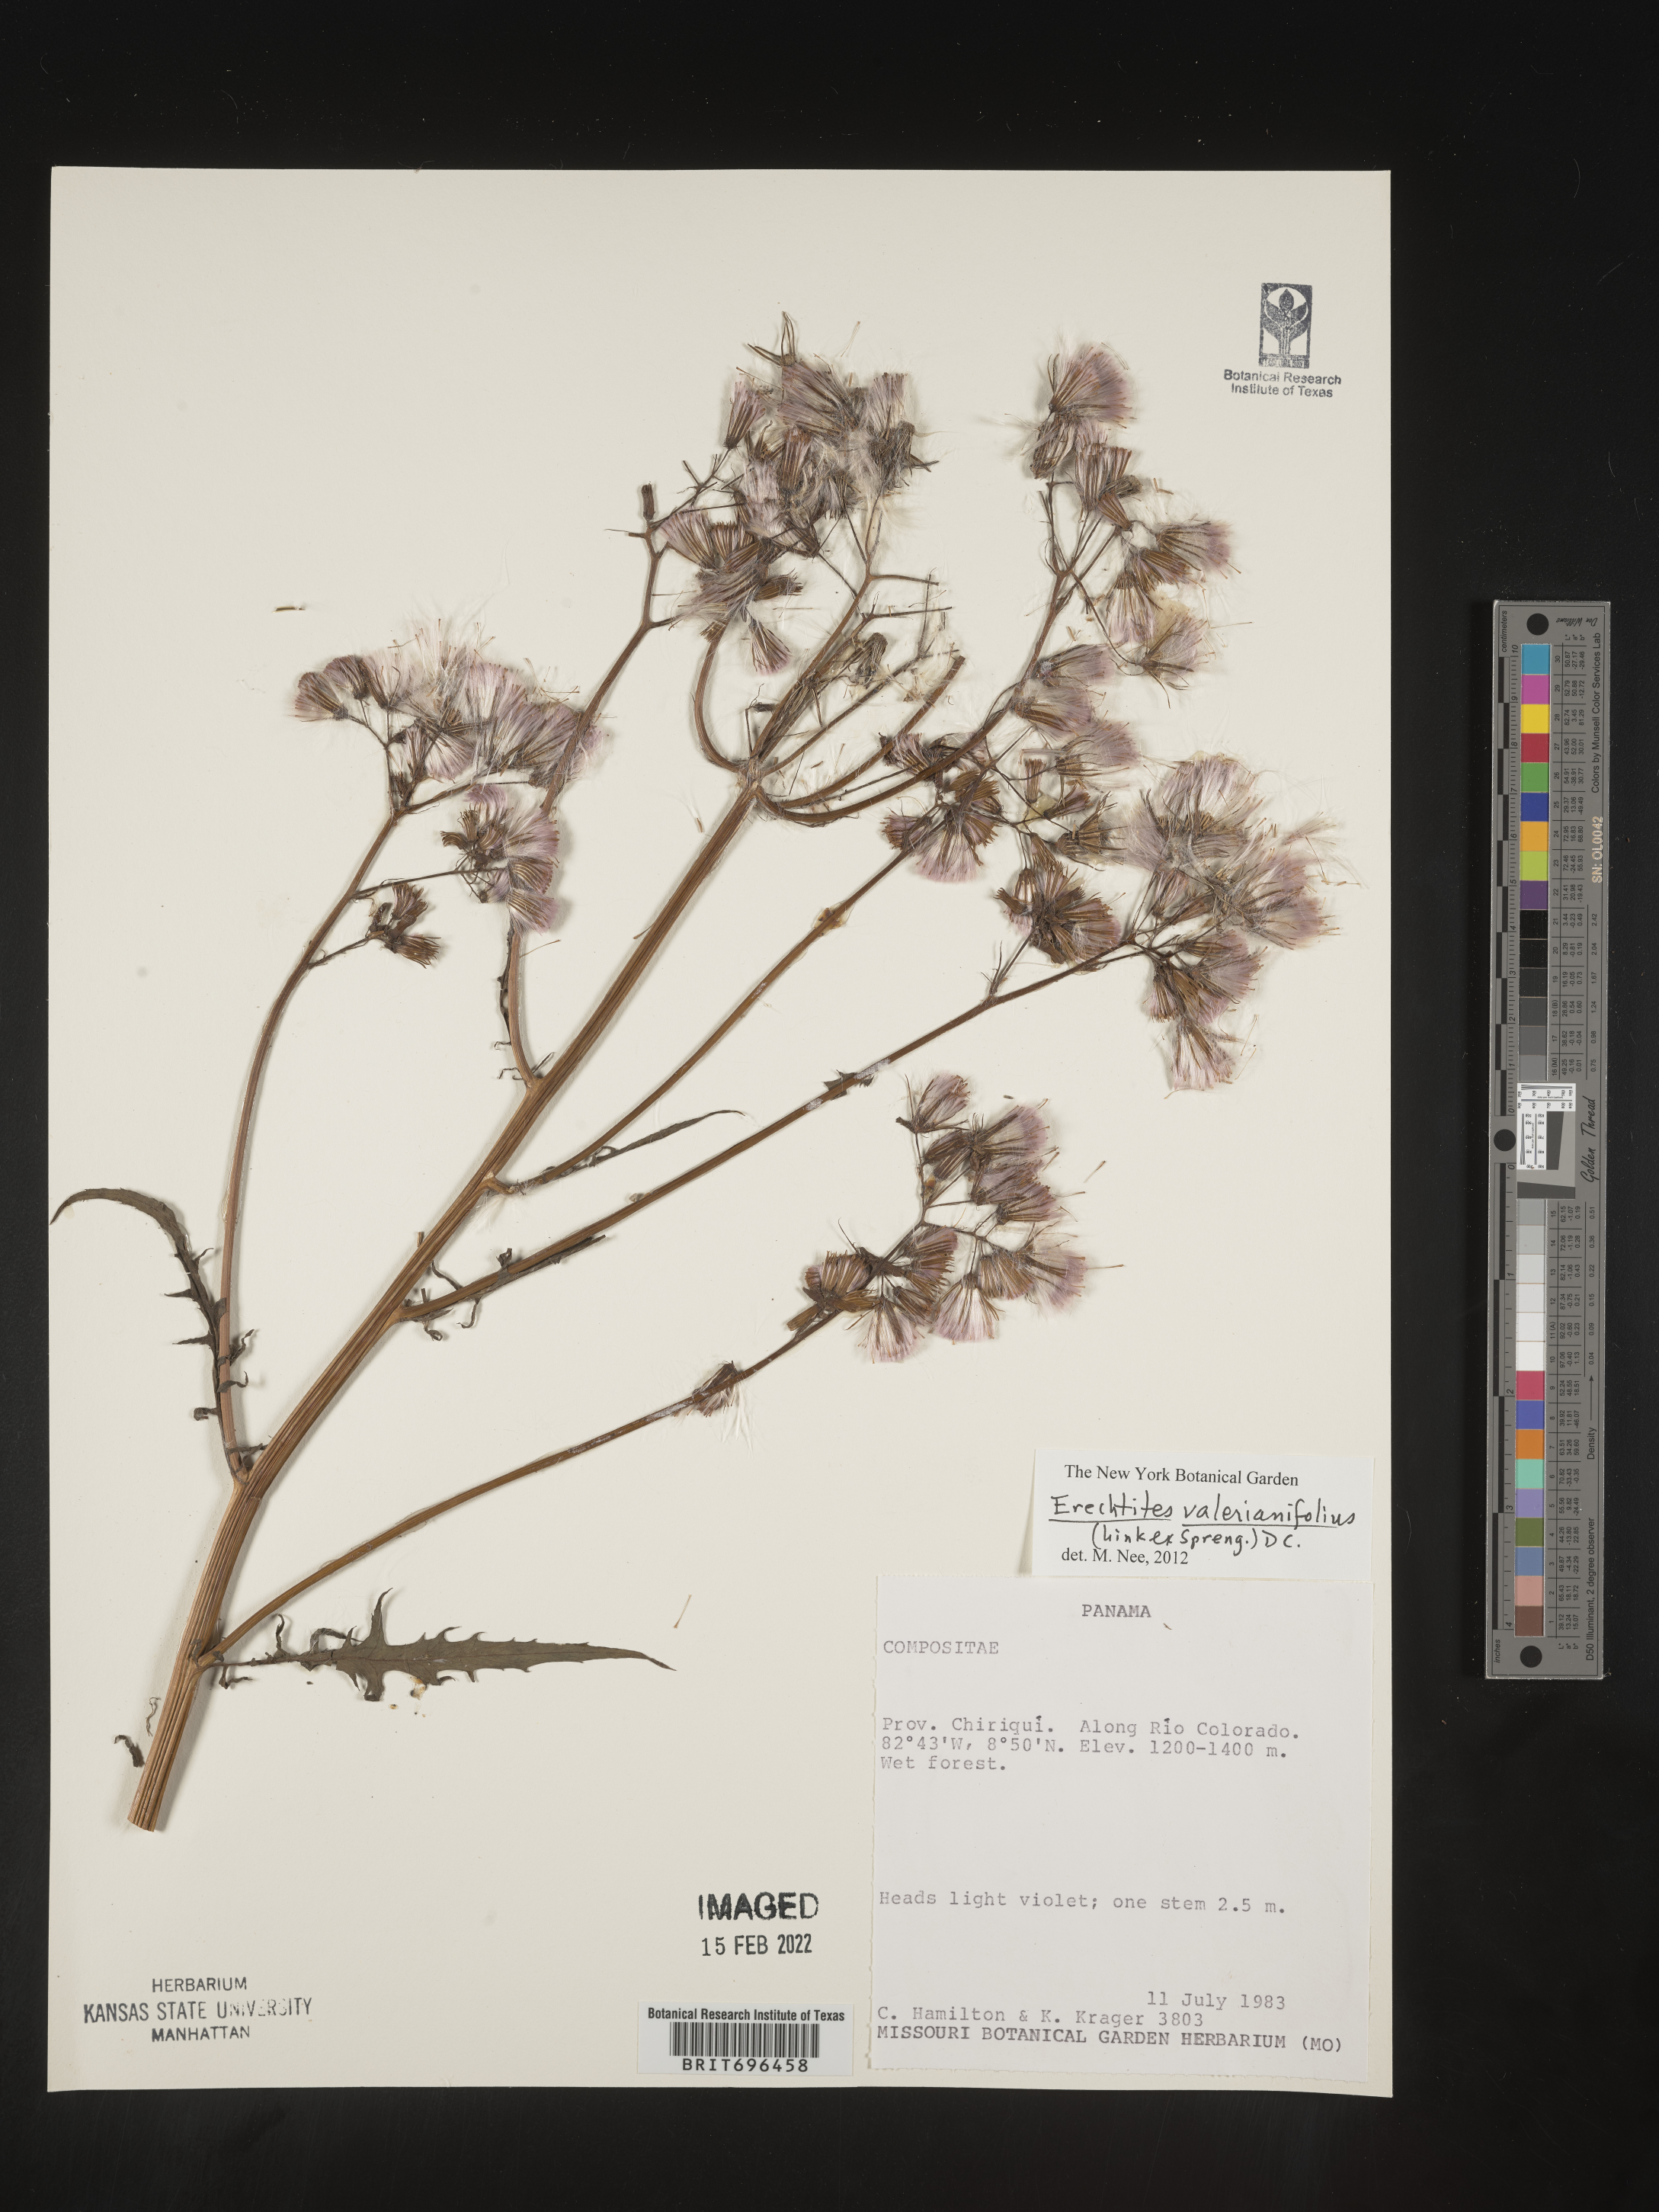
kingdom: Plantae
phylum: Tracheophyta
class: Magnoliopsida
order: Asterales
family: Asteraceae
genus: Erechtites
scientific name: Erechtites
